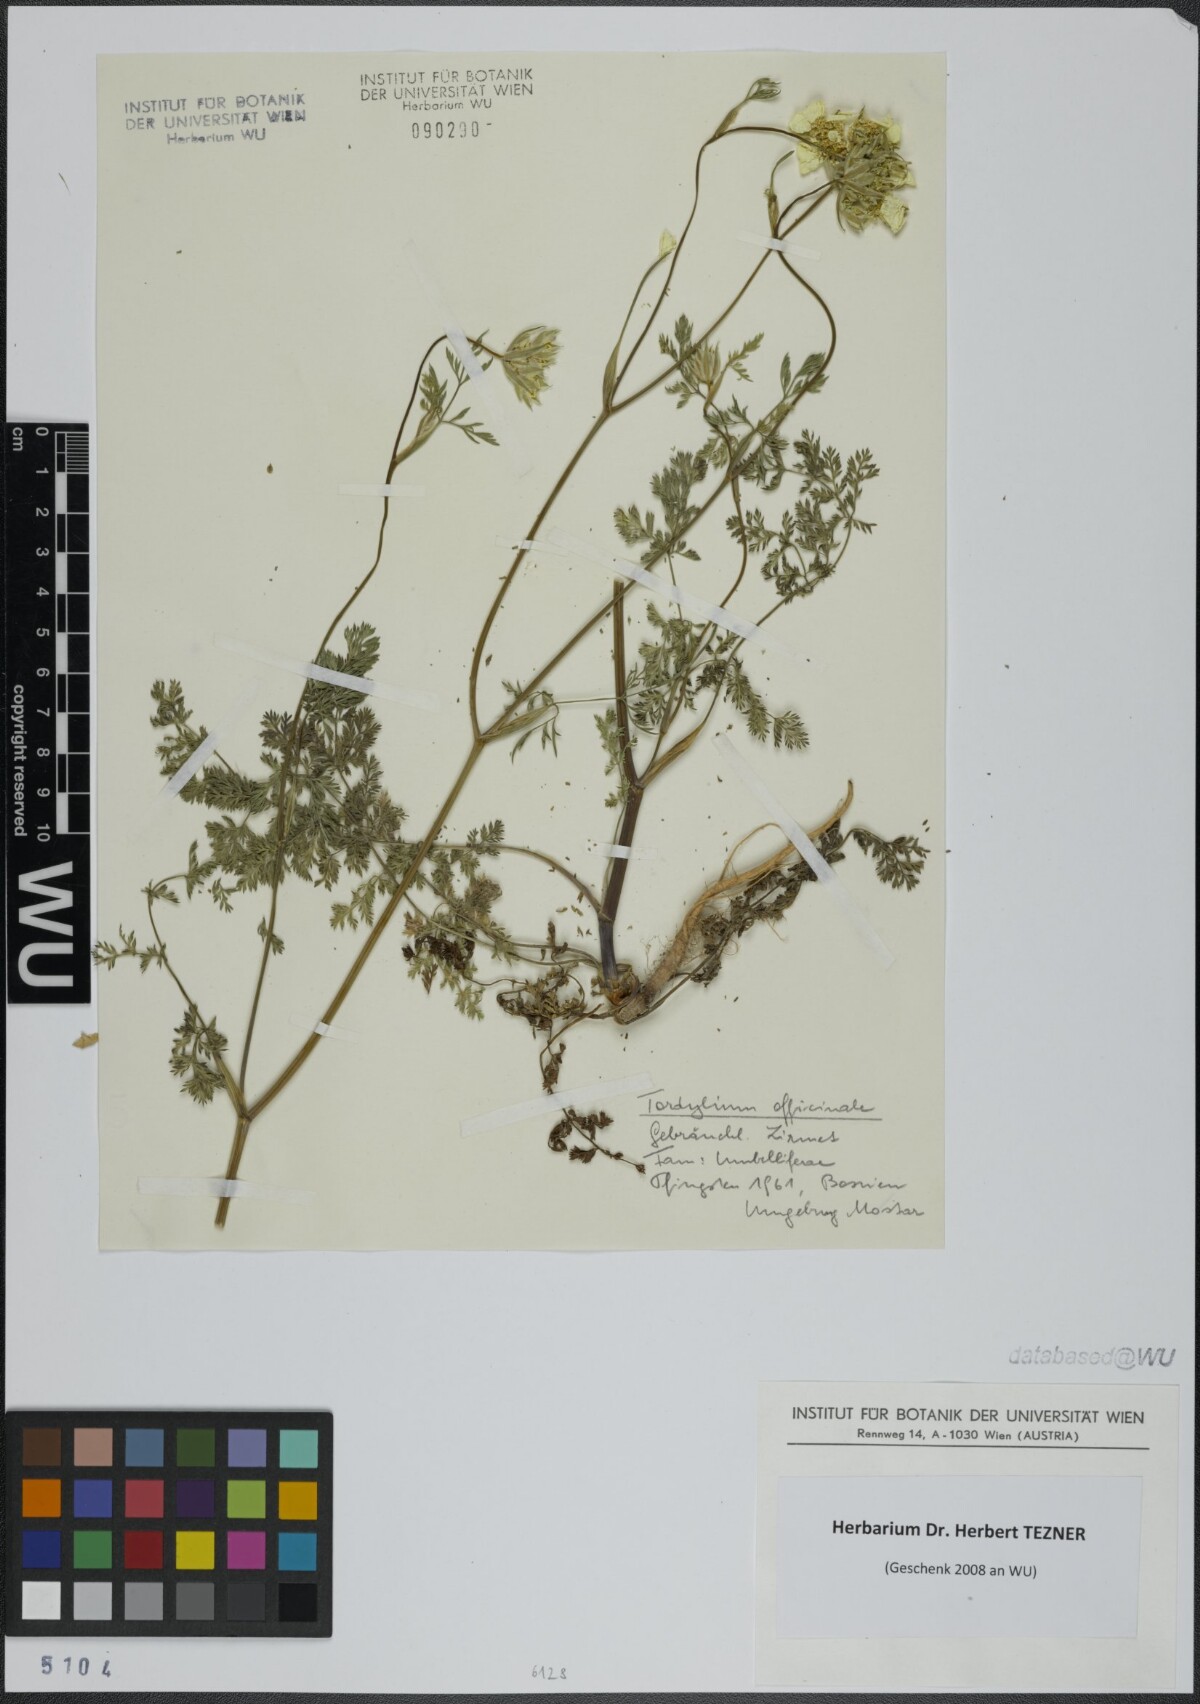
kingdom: Plantae
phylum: Tracheophyta
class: Magnoliopsida
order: Apiales
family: Apiaceae
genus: Tordylium
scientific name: Tordylium officinale
